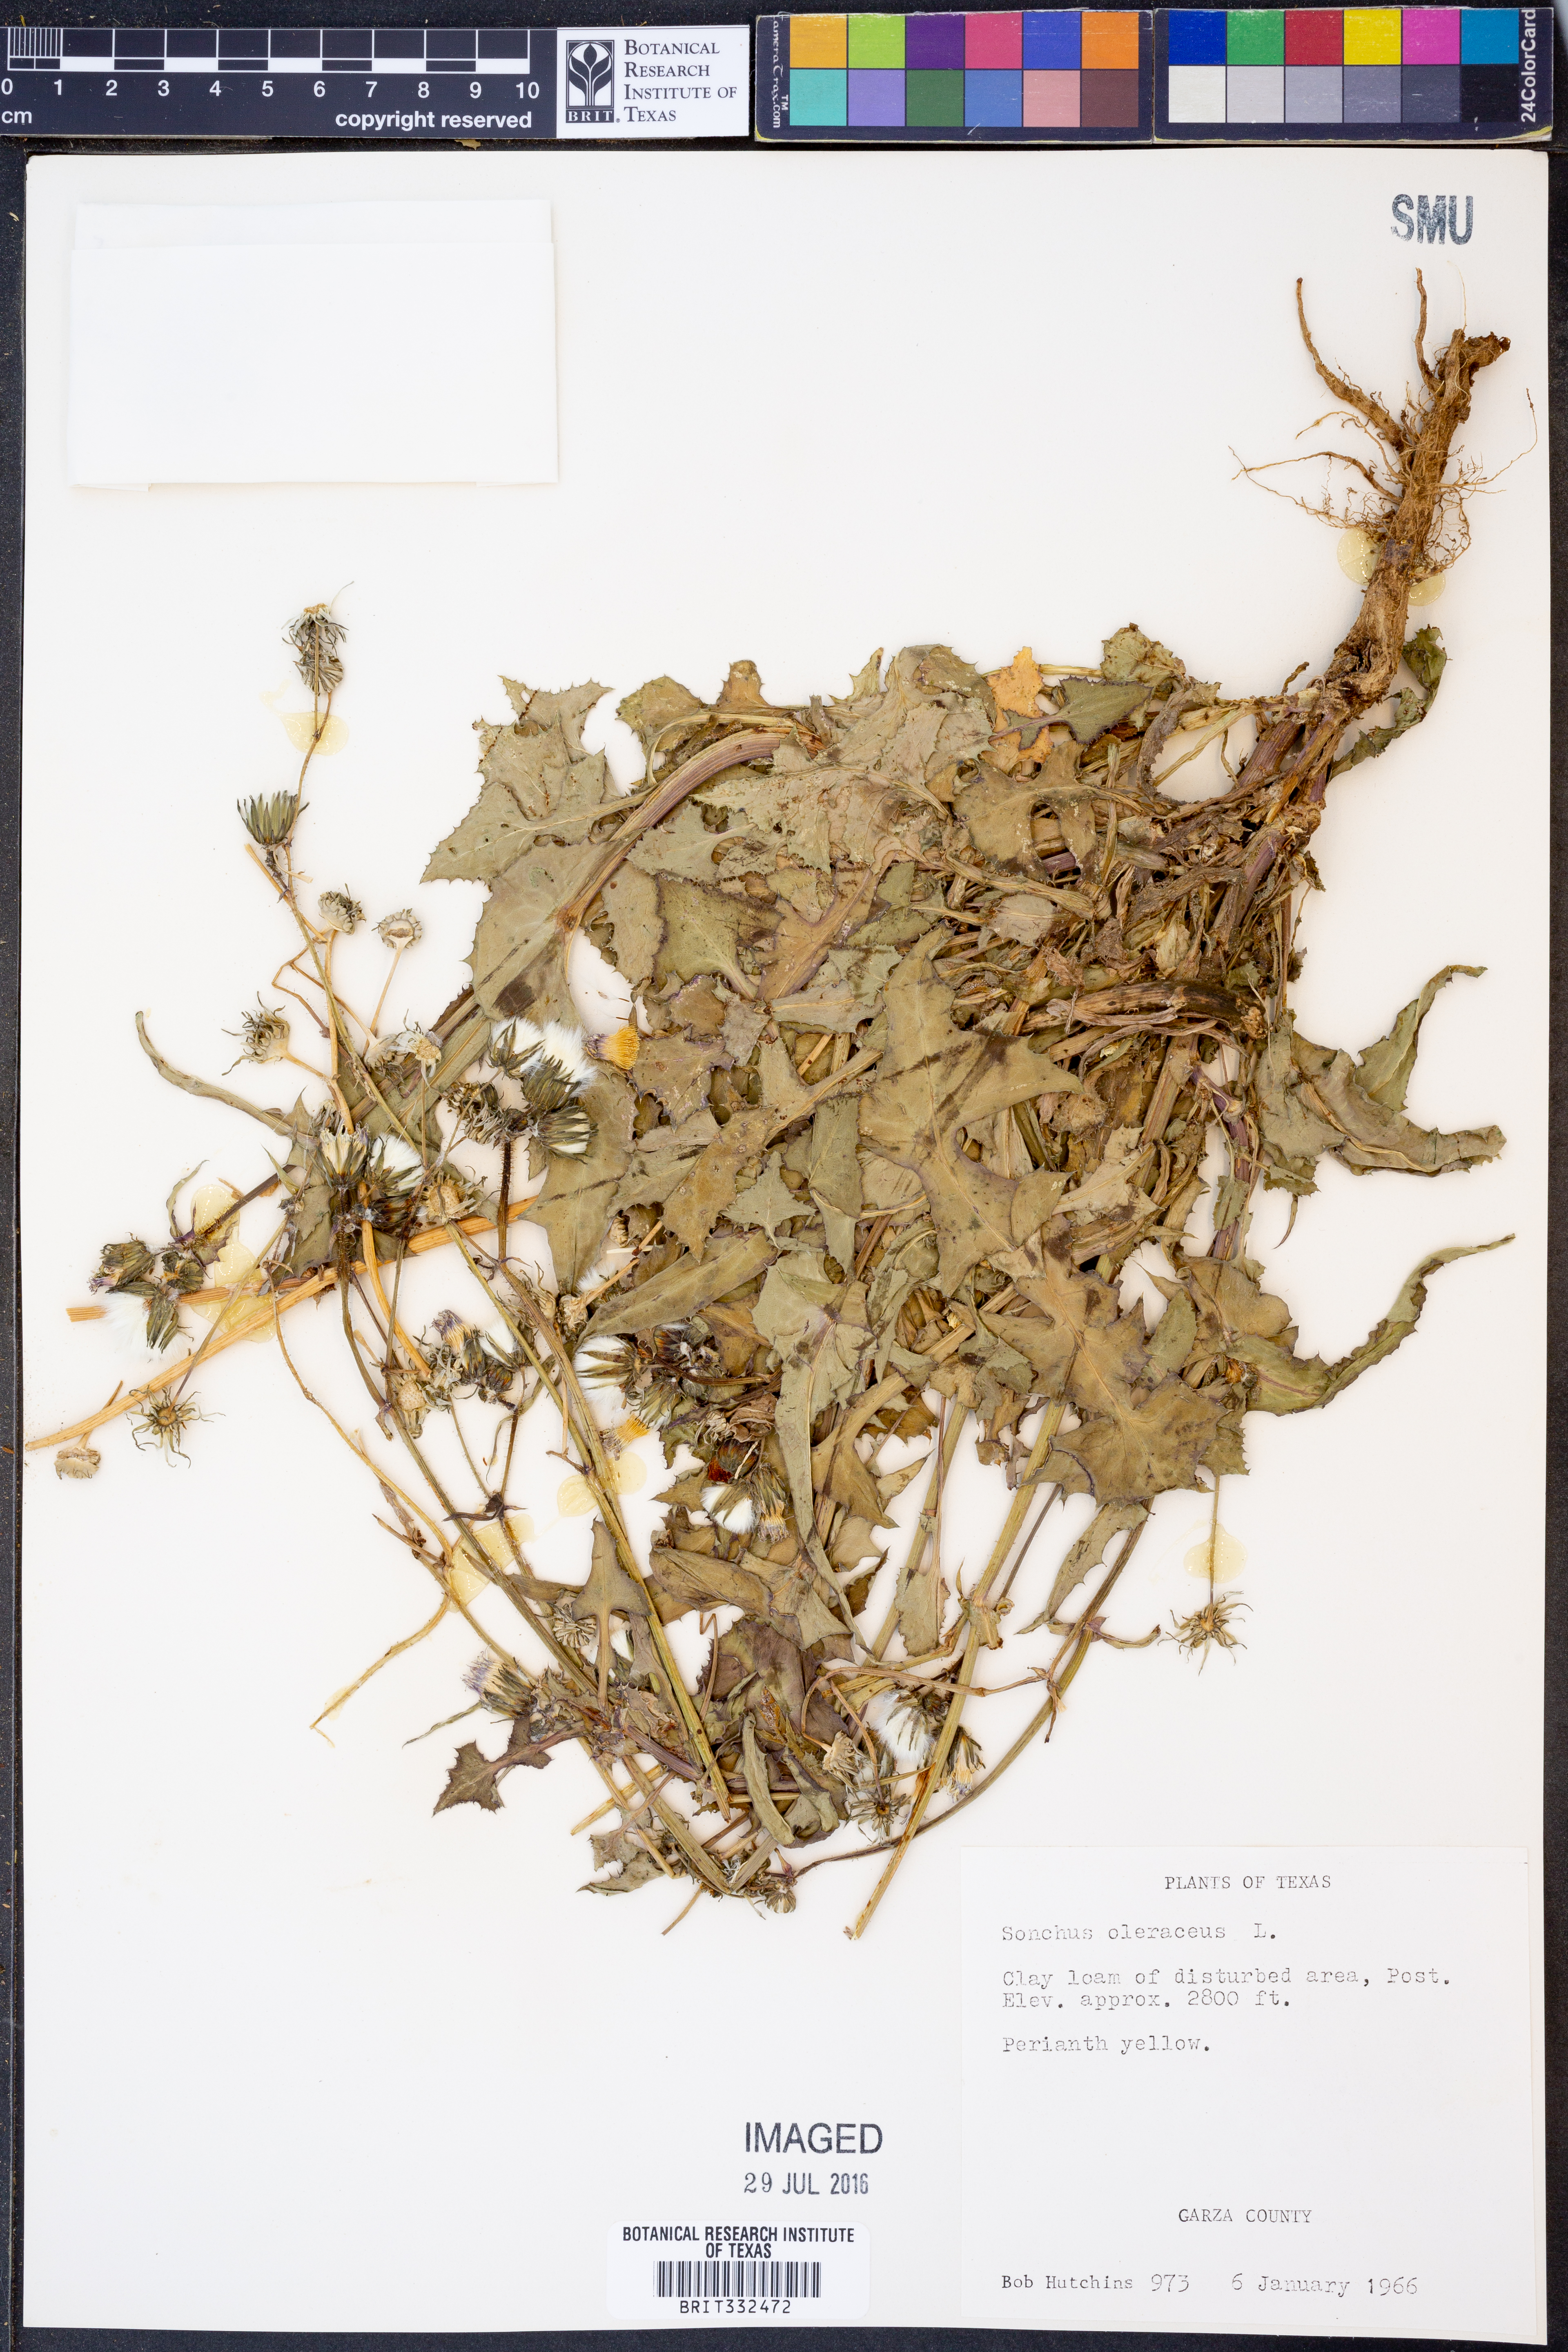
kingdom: Plantae
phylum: Tracheophyta
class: Magnoliopsida
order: Asterales
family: Asteraceae
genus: Sonchus
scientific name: Sonchus oleraceus
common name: Common sowthistle
